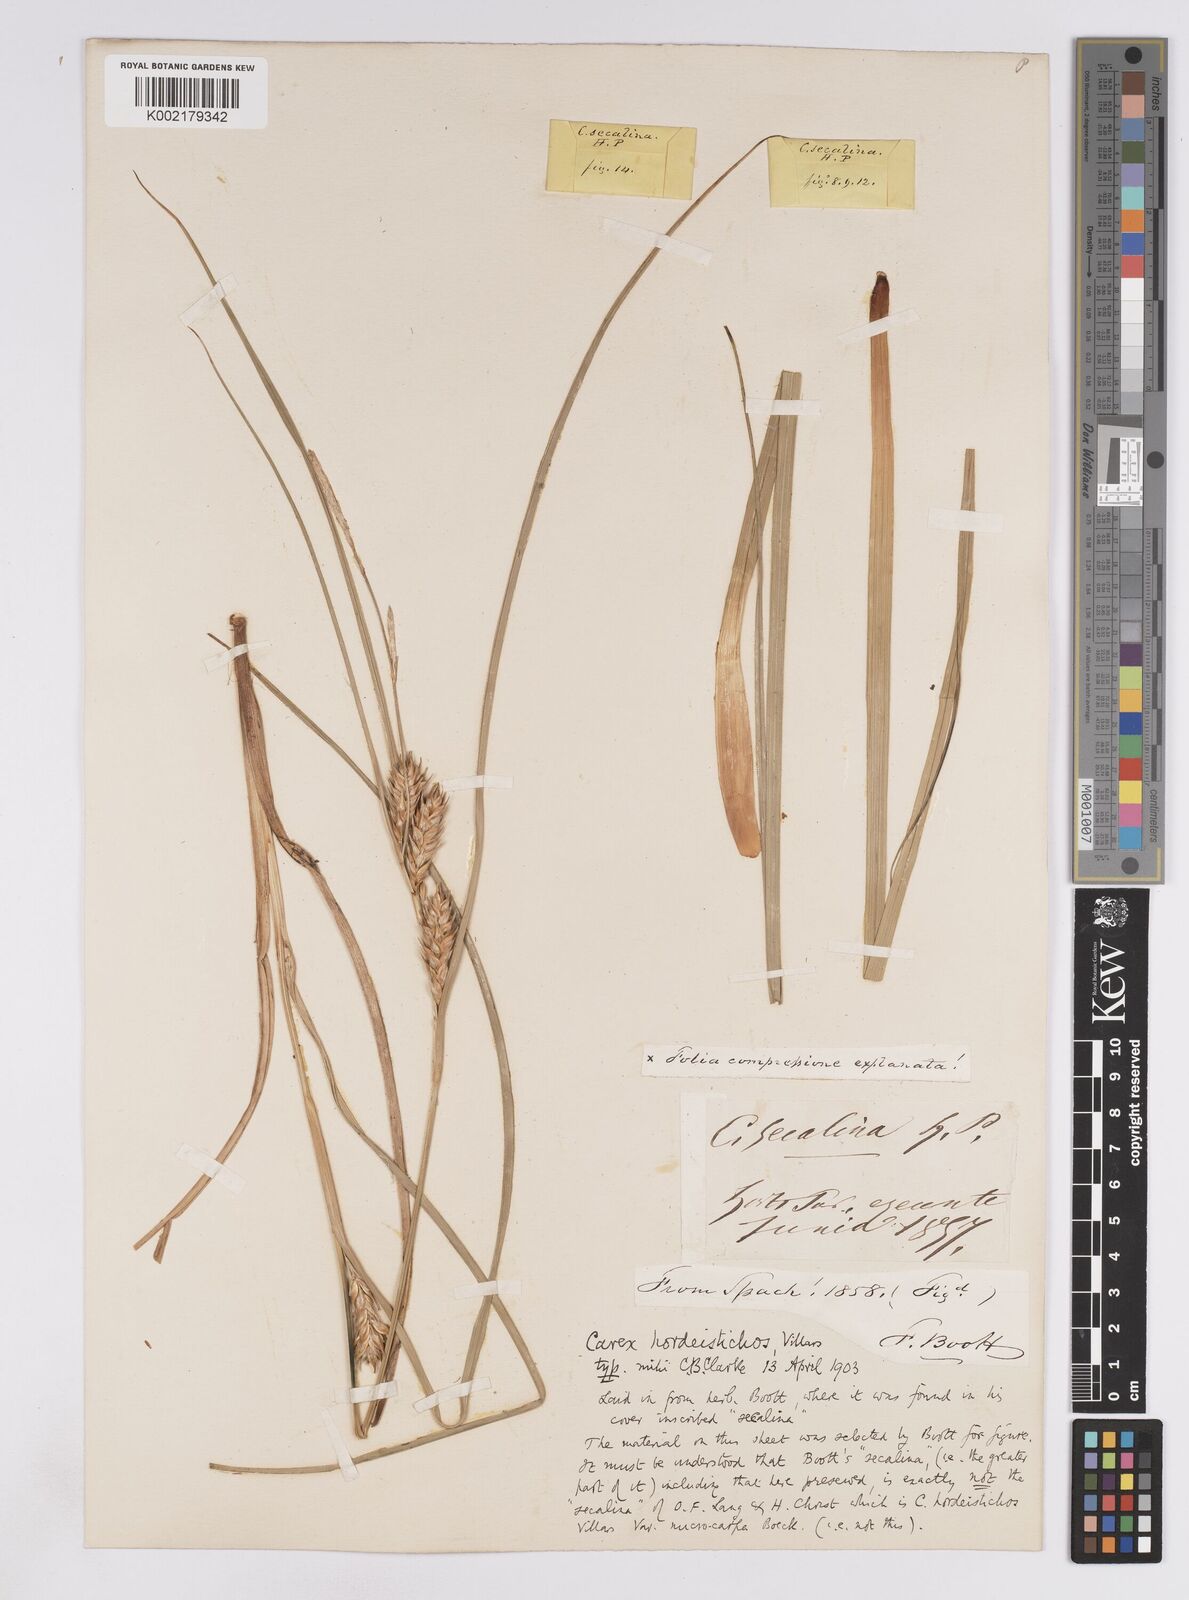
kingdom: Plantae
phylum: Tracheophyta
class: Liliopsida
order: Poales
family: Cyperaceae
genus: Carex
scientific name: Carex hordeistichos
